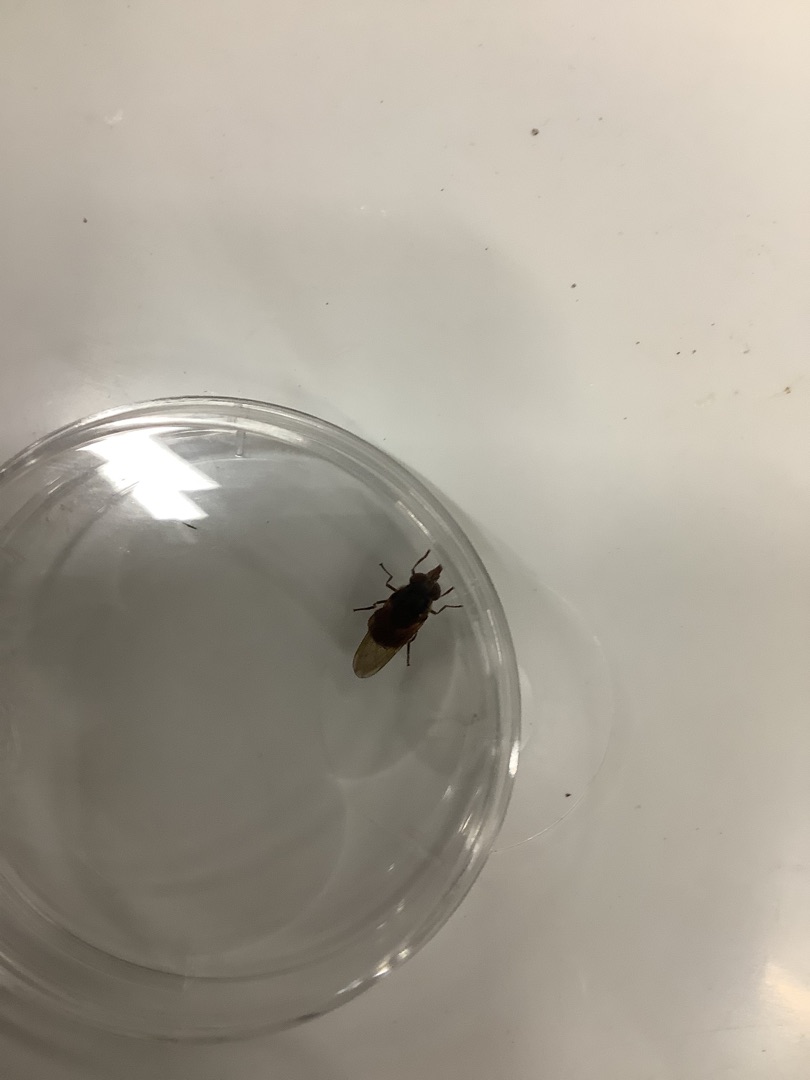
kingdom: Animalia
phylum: Arthropoda
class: Insecta
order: Diptera
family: Syrphidae
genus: Rhingia
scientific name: Rhingia campestris
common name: Mark-snabelsvirreflue
